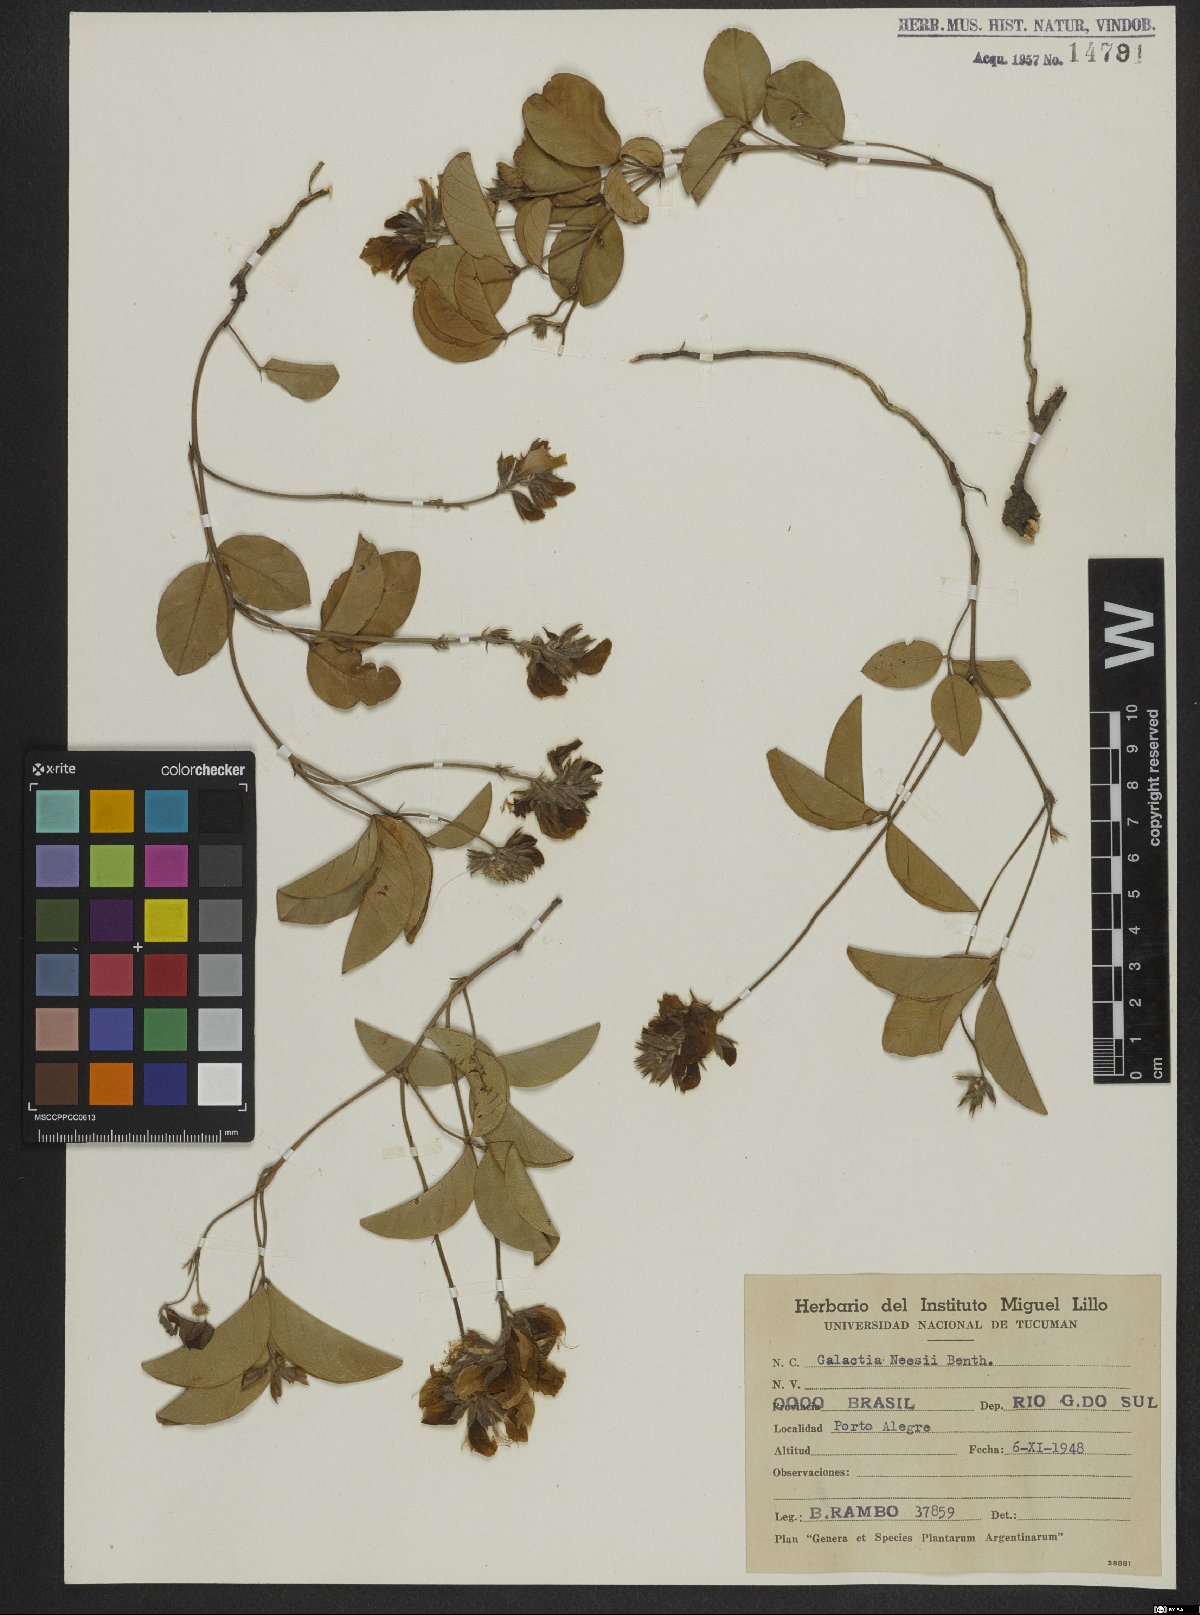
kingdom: Plantae
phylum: Tracheophyta
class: Magnoliopsida
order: Fabales
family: Fabaceae
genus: Betencourtia
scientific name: Betencourtia neesii
